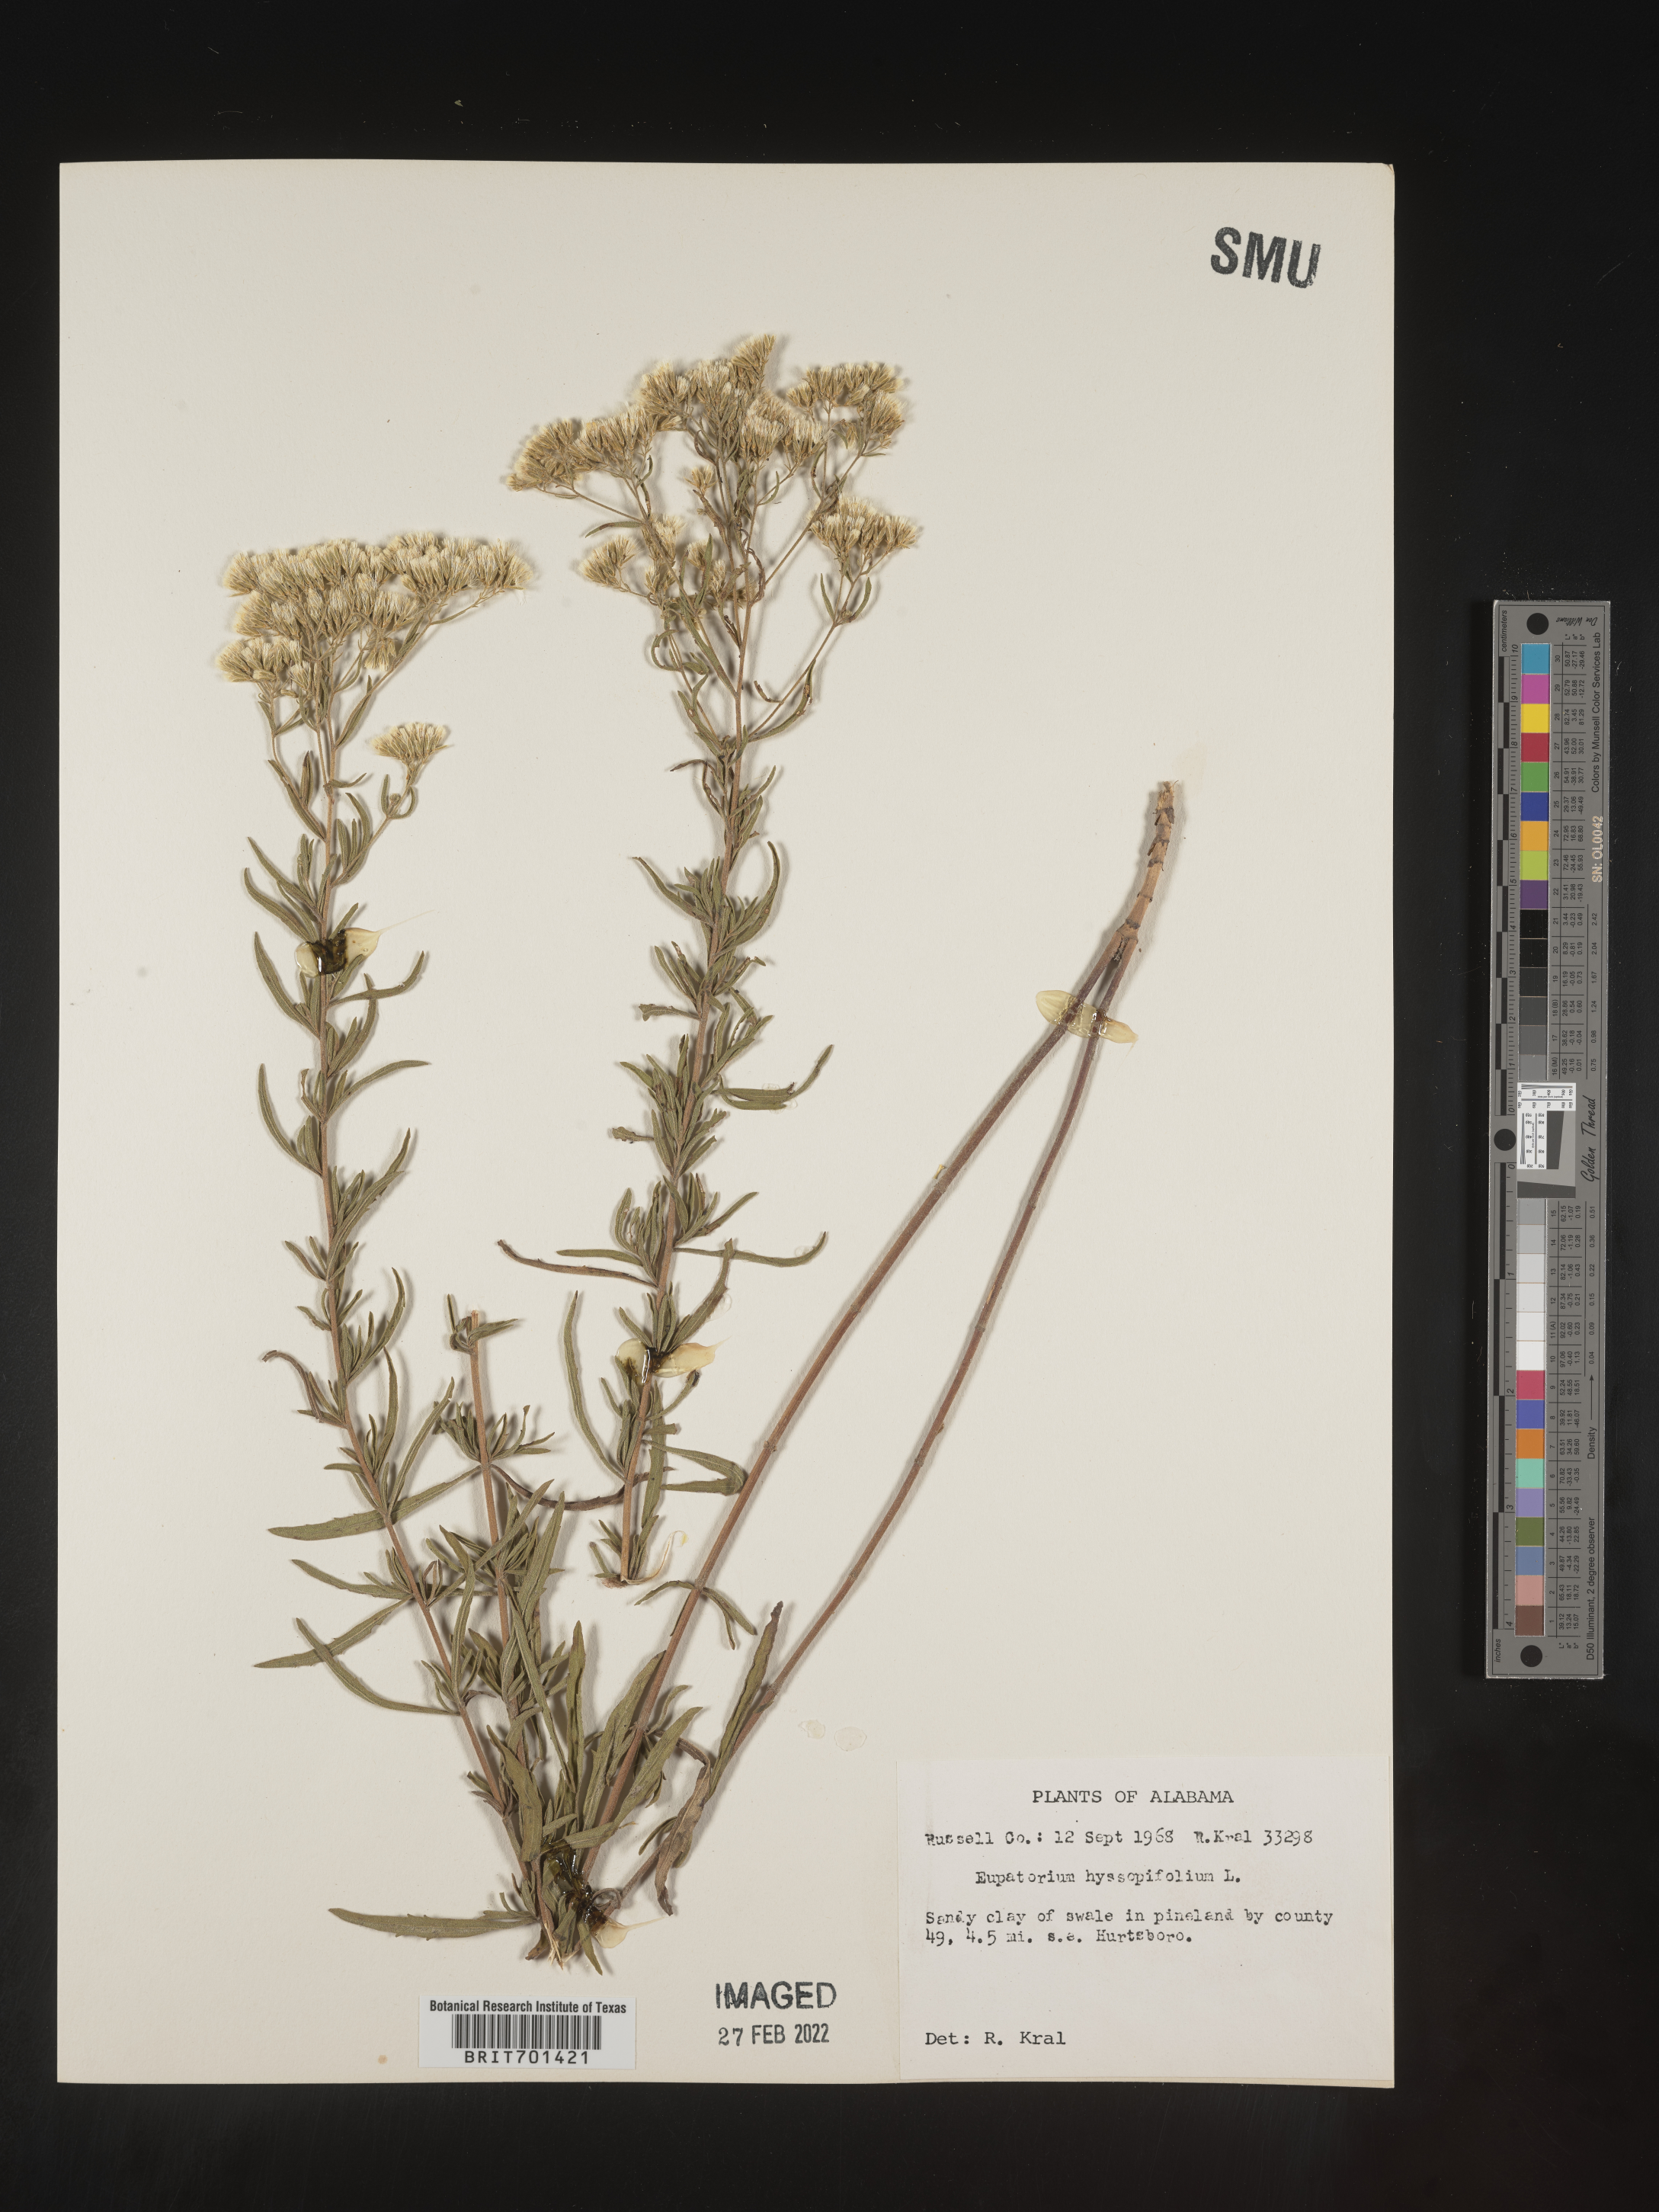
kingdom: Plantae
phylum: Tracheophyta
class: Magnoliopsida
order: Asterales
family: Asteraceae
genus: Eupatorium
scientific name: Eupatorium hyssopifolium
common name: Hyssop-leaf thoroughwort
